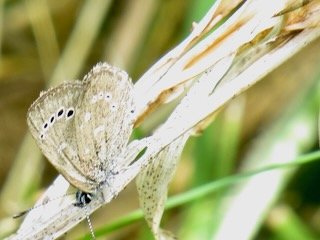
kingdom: Animalia
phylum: Arthropoda
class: Insecta
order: Lepidoptera
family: Lycaenidae
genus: Glaucopsyche
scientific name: Glaucopsyche lygdamus
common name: Silvery Blue
